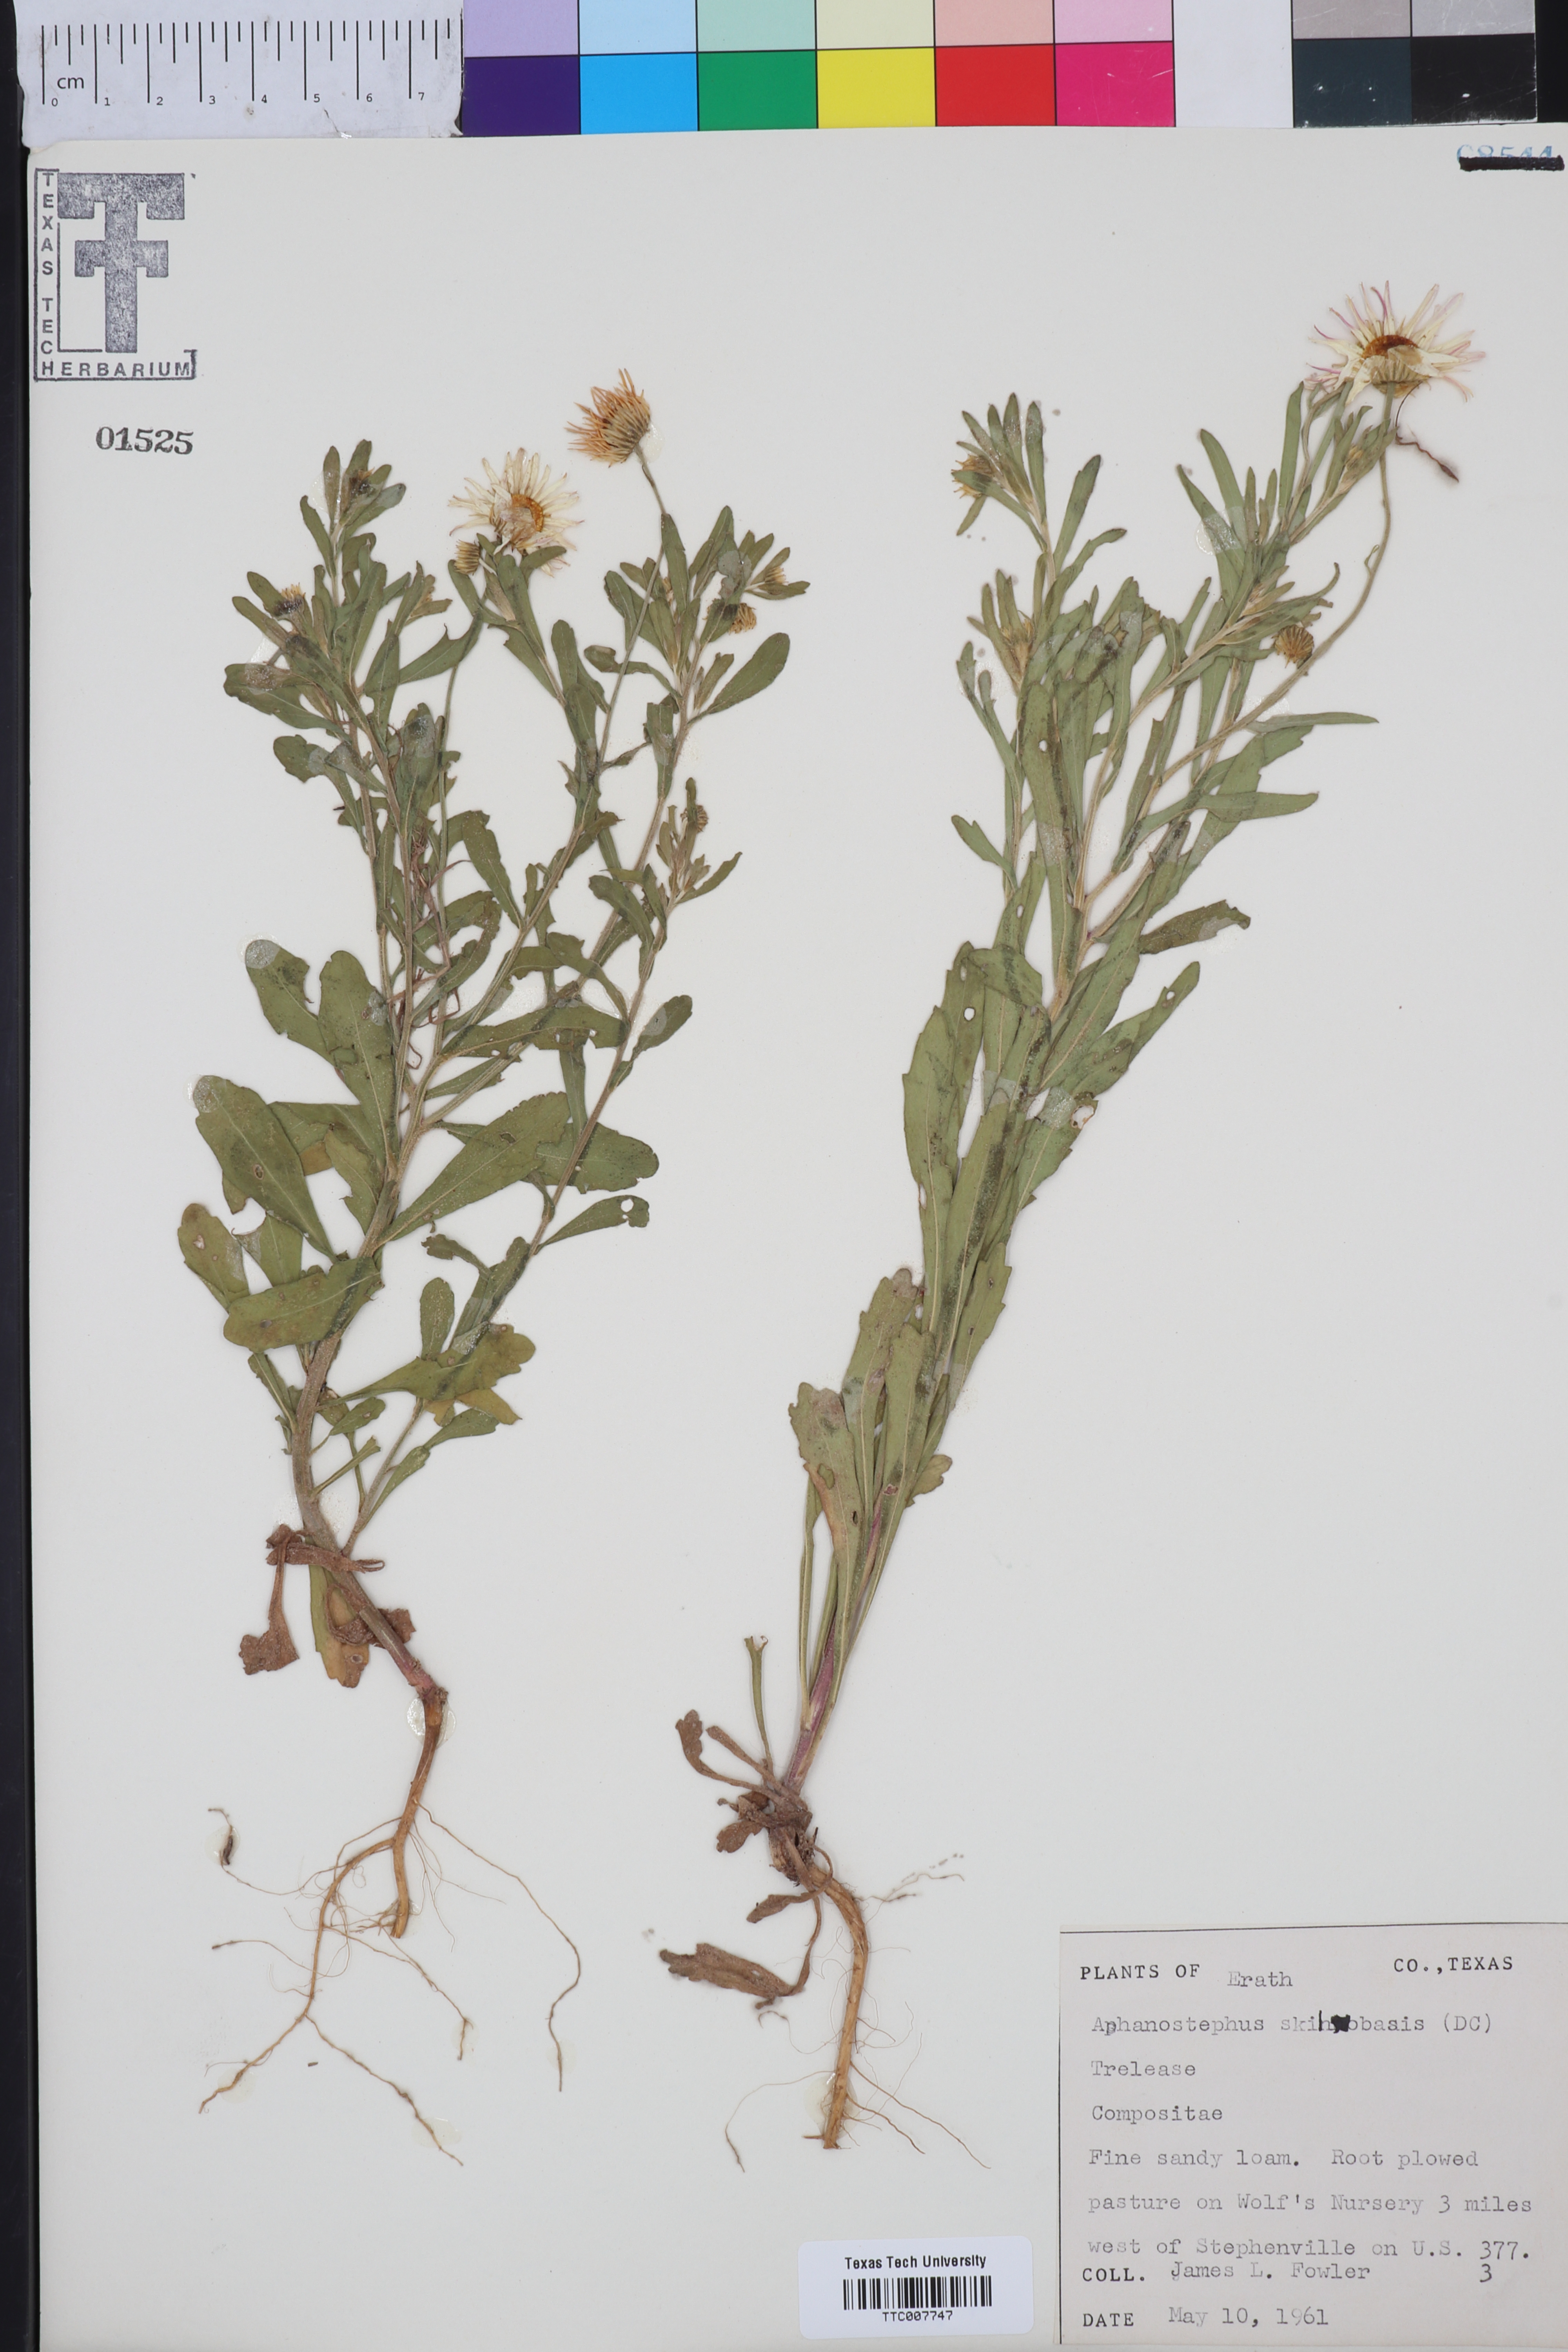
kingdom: Plantae
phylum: Tracheophyta
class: Magnoliopsida
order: Asterales
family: Asteraceae
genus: Aphanostephus
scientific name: Aphanostephus skirrhobasis
